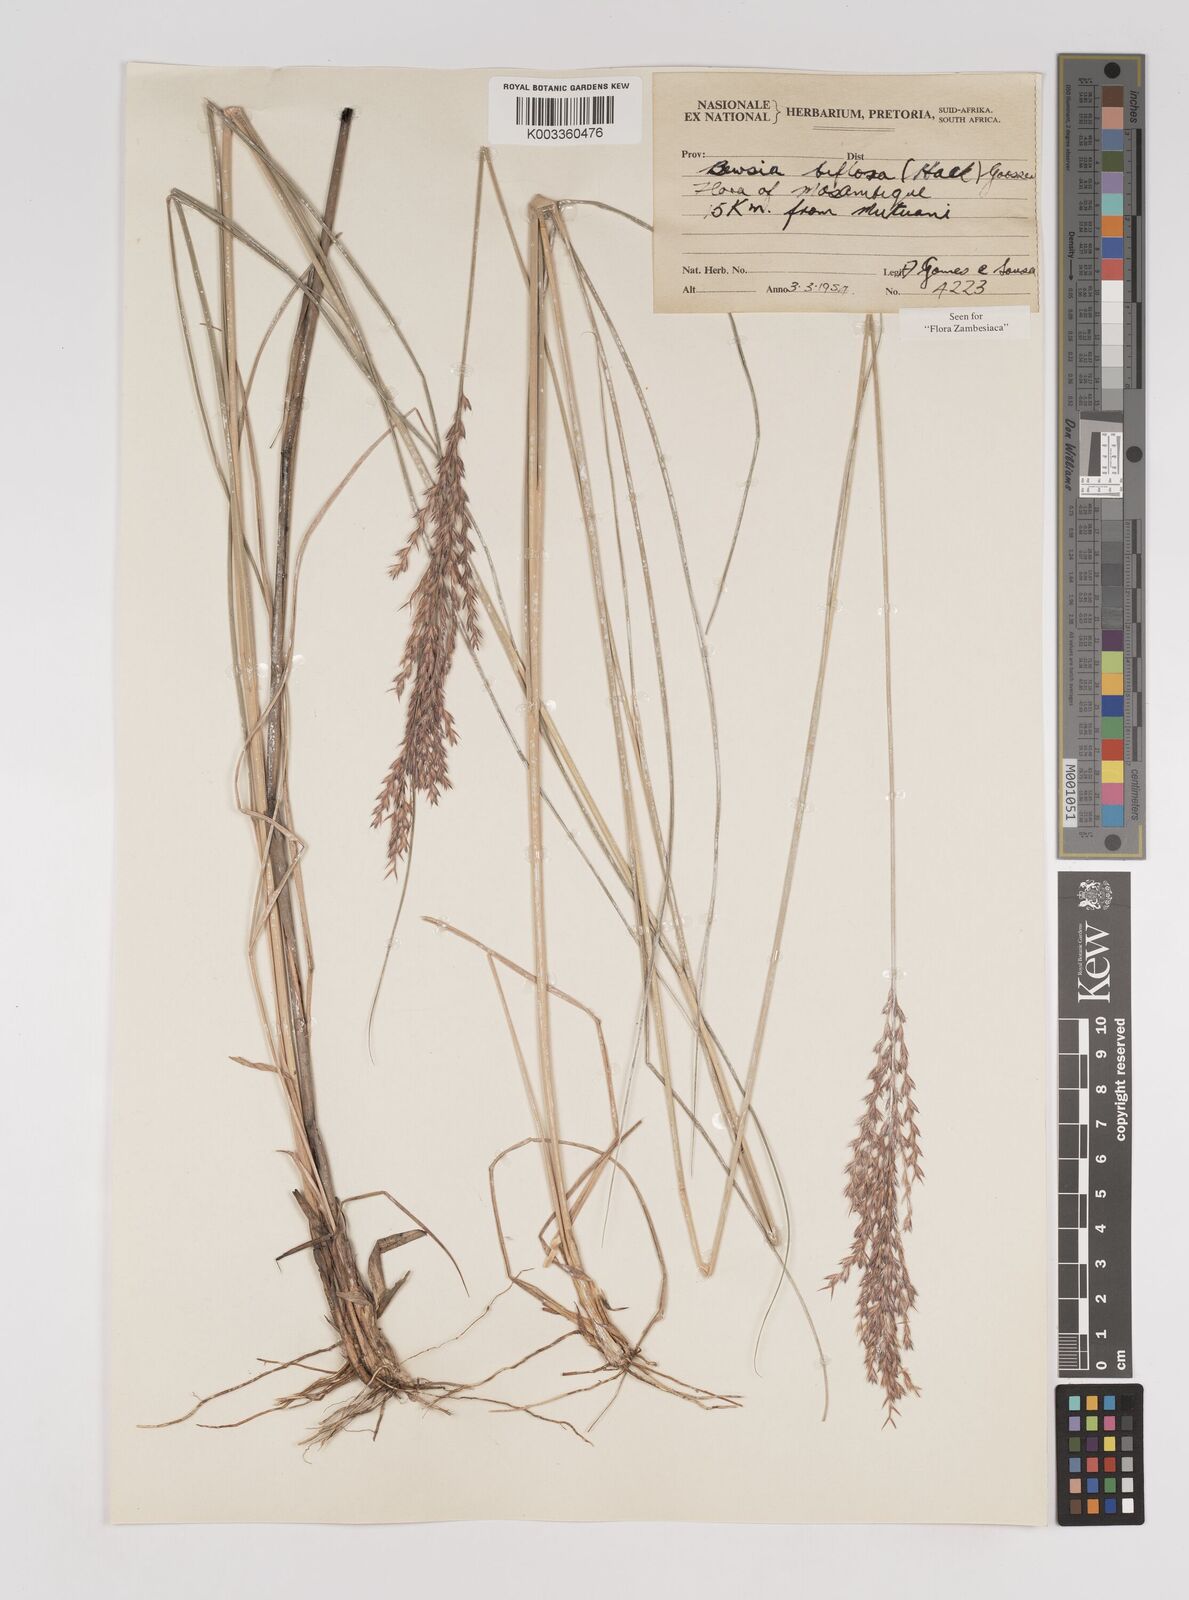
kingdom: Plantae
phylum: Tracheophyta
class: Liliopsida
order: Poales
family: Poaceae
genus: Bewsia
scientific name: Bewsia biflora
